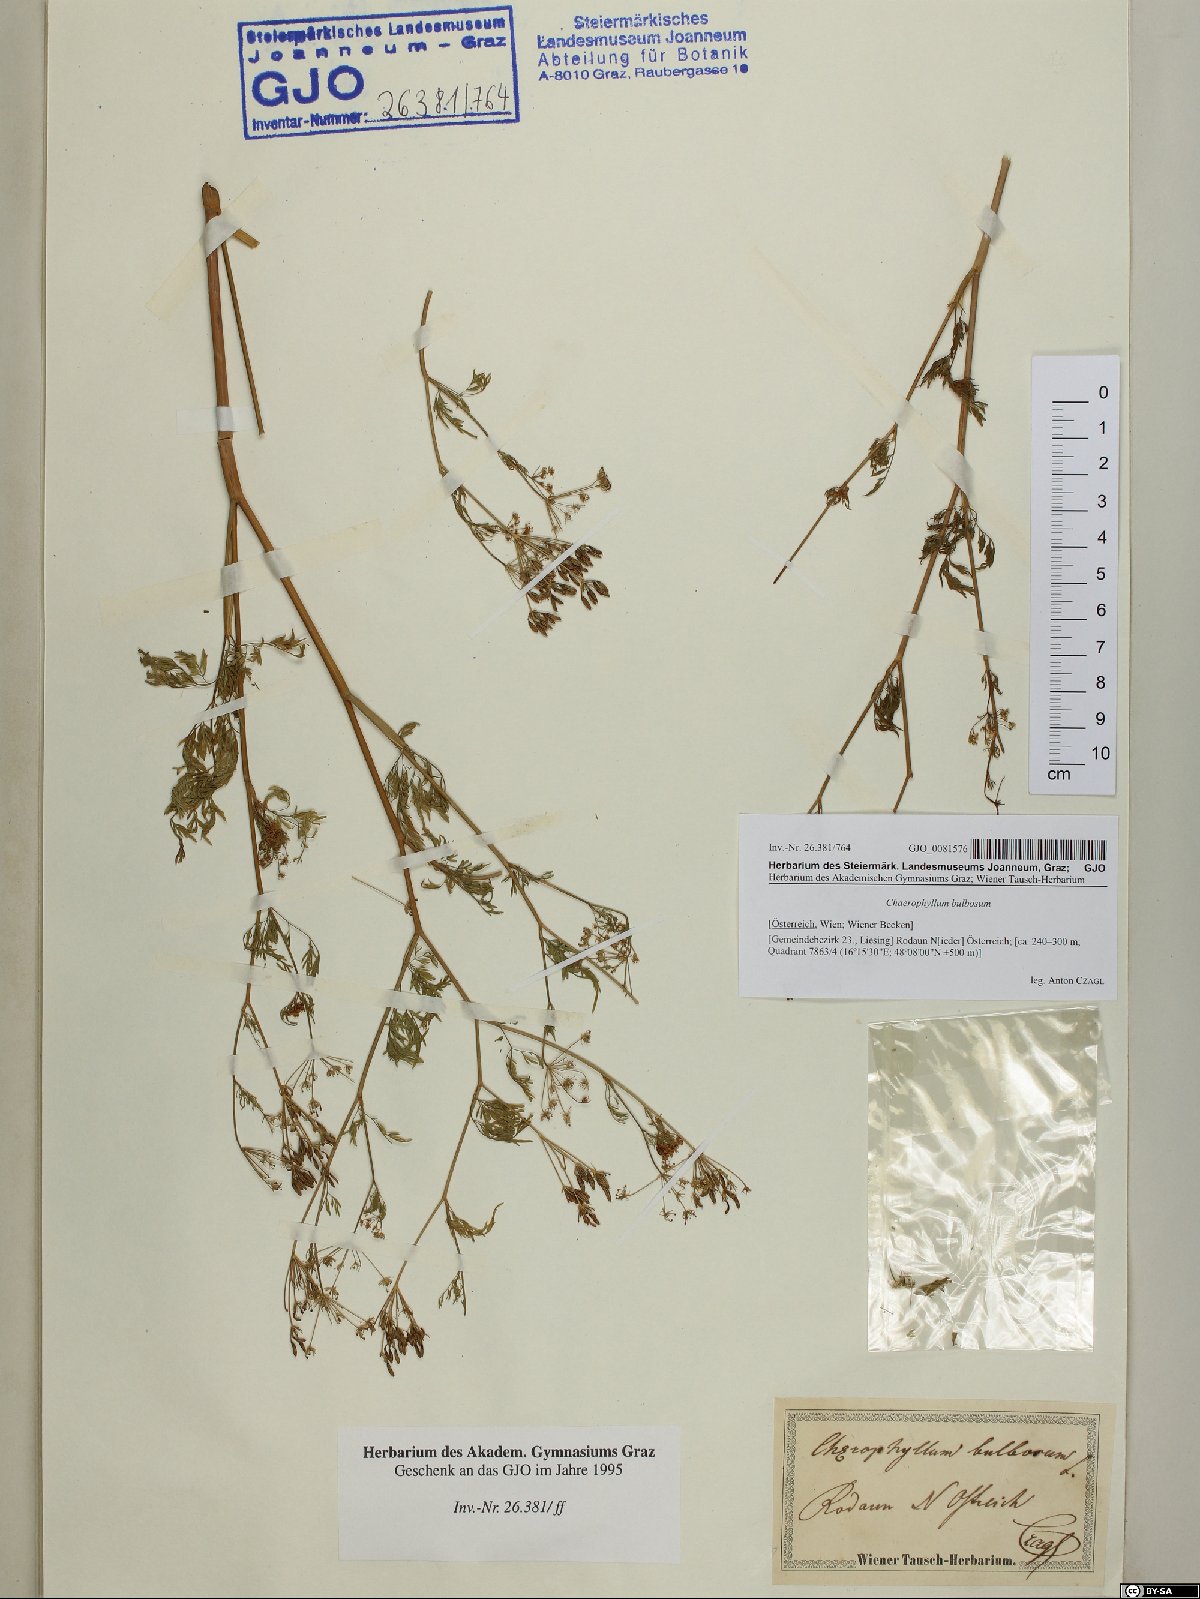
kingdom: Plantae
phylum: Tracheophyta
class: Magnoliopsida
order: Apiales
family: Apiaceae
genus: Chaerophyllum
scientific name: Chaerophyllum bulbosum
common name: Bulbous chervil
